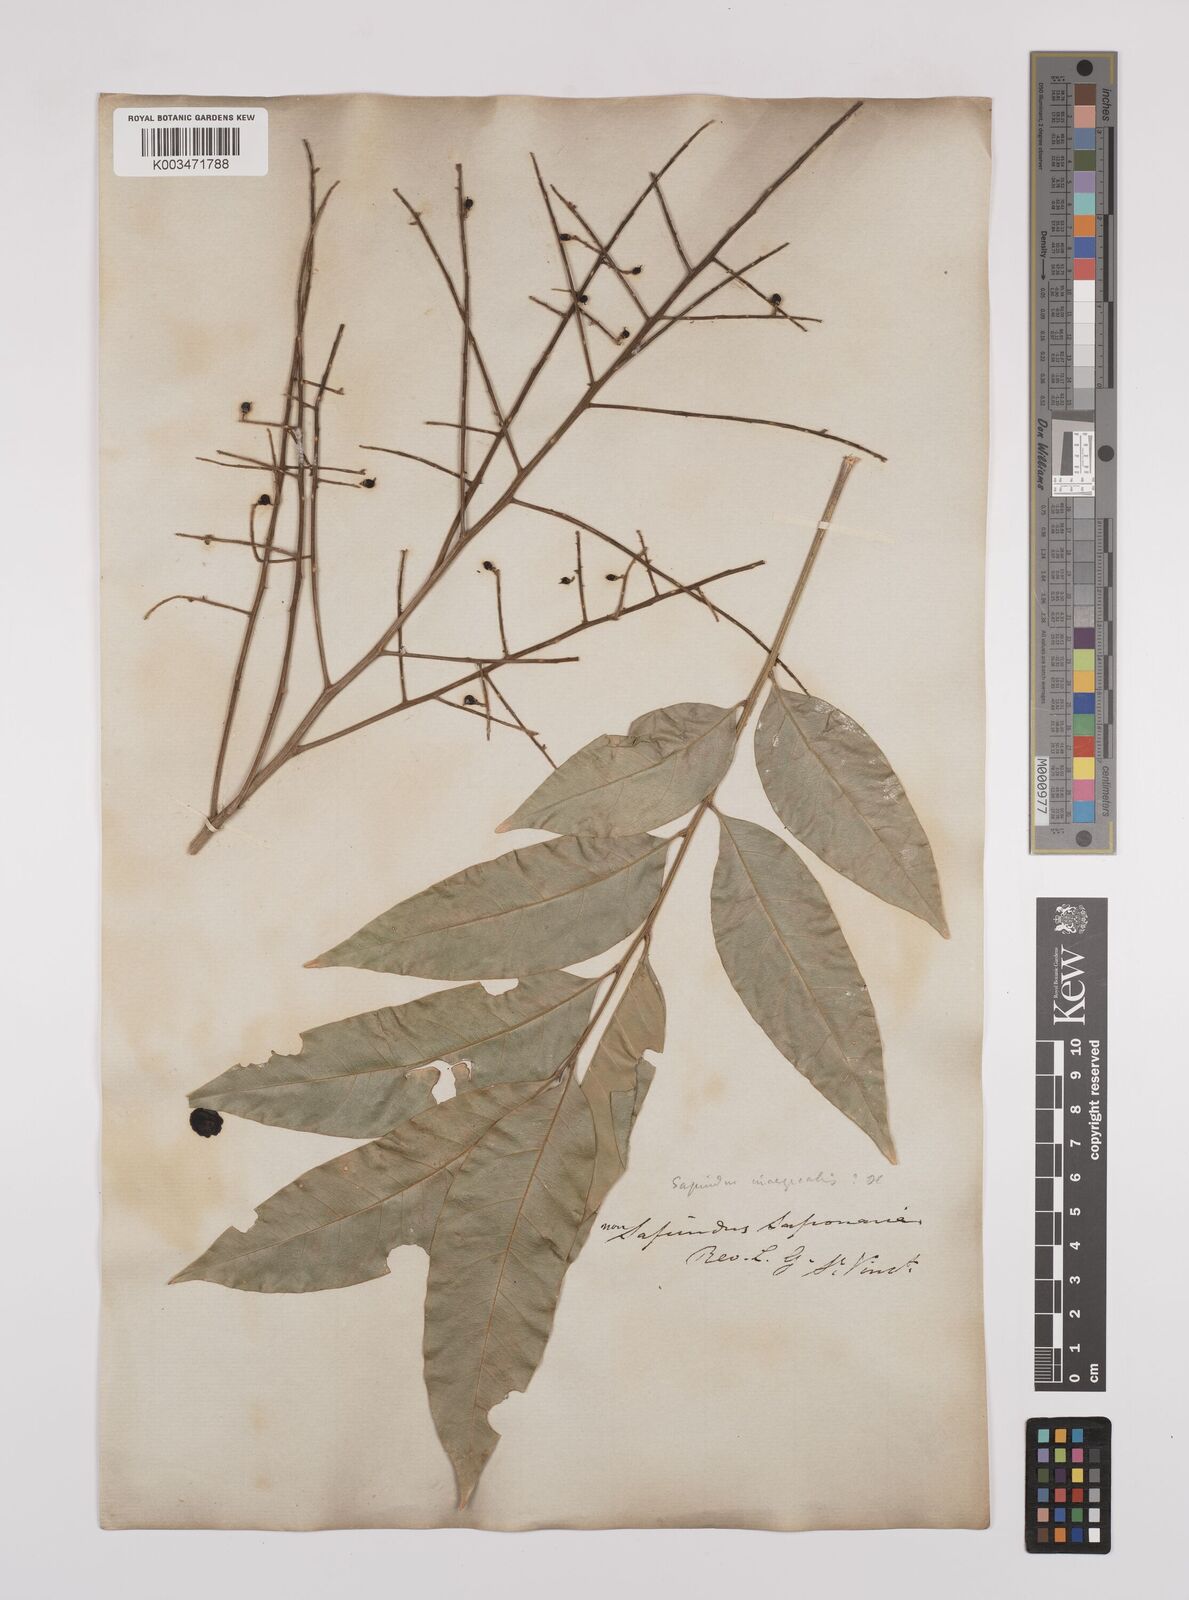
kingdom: Plantae
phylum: Tracheophyta
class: Magnoliopsida
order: Sapindales
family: Sapindaceae
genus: Sapindus
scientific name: Sapindus saponaria
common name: Wingleaf soapberry
